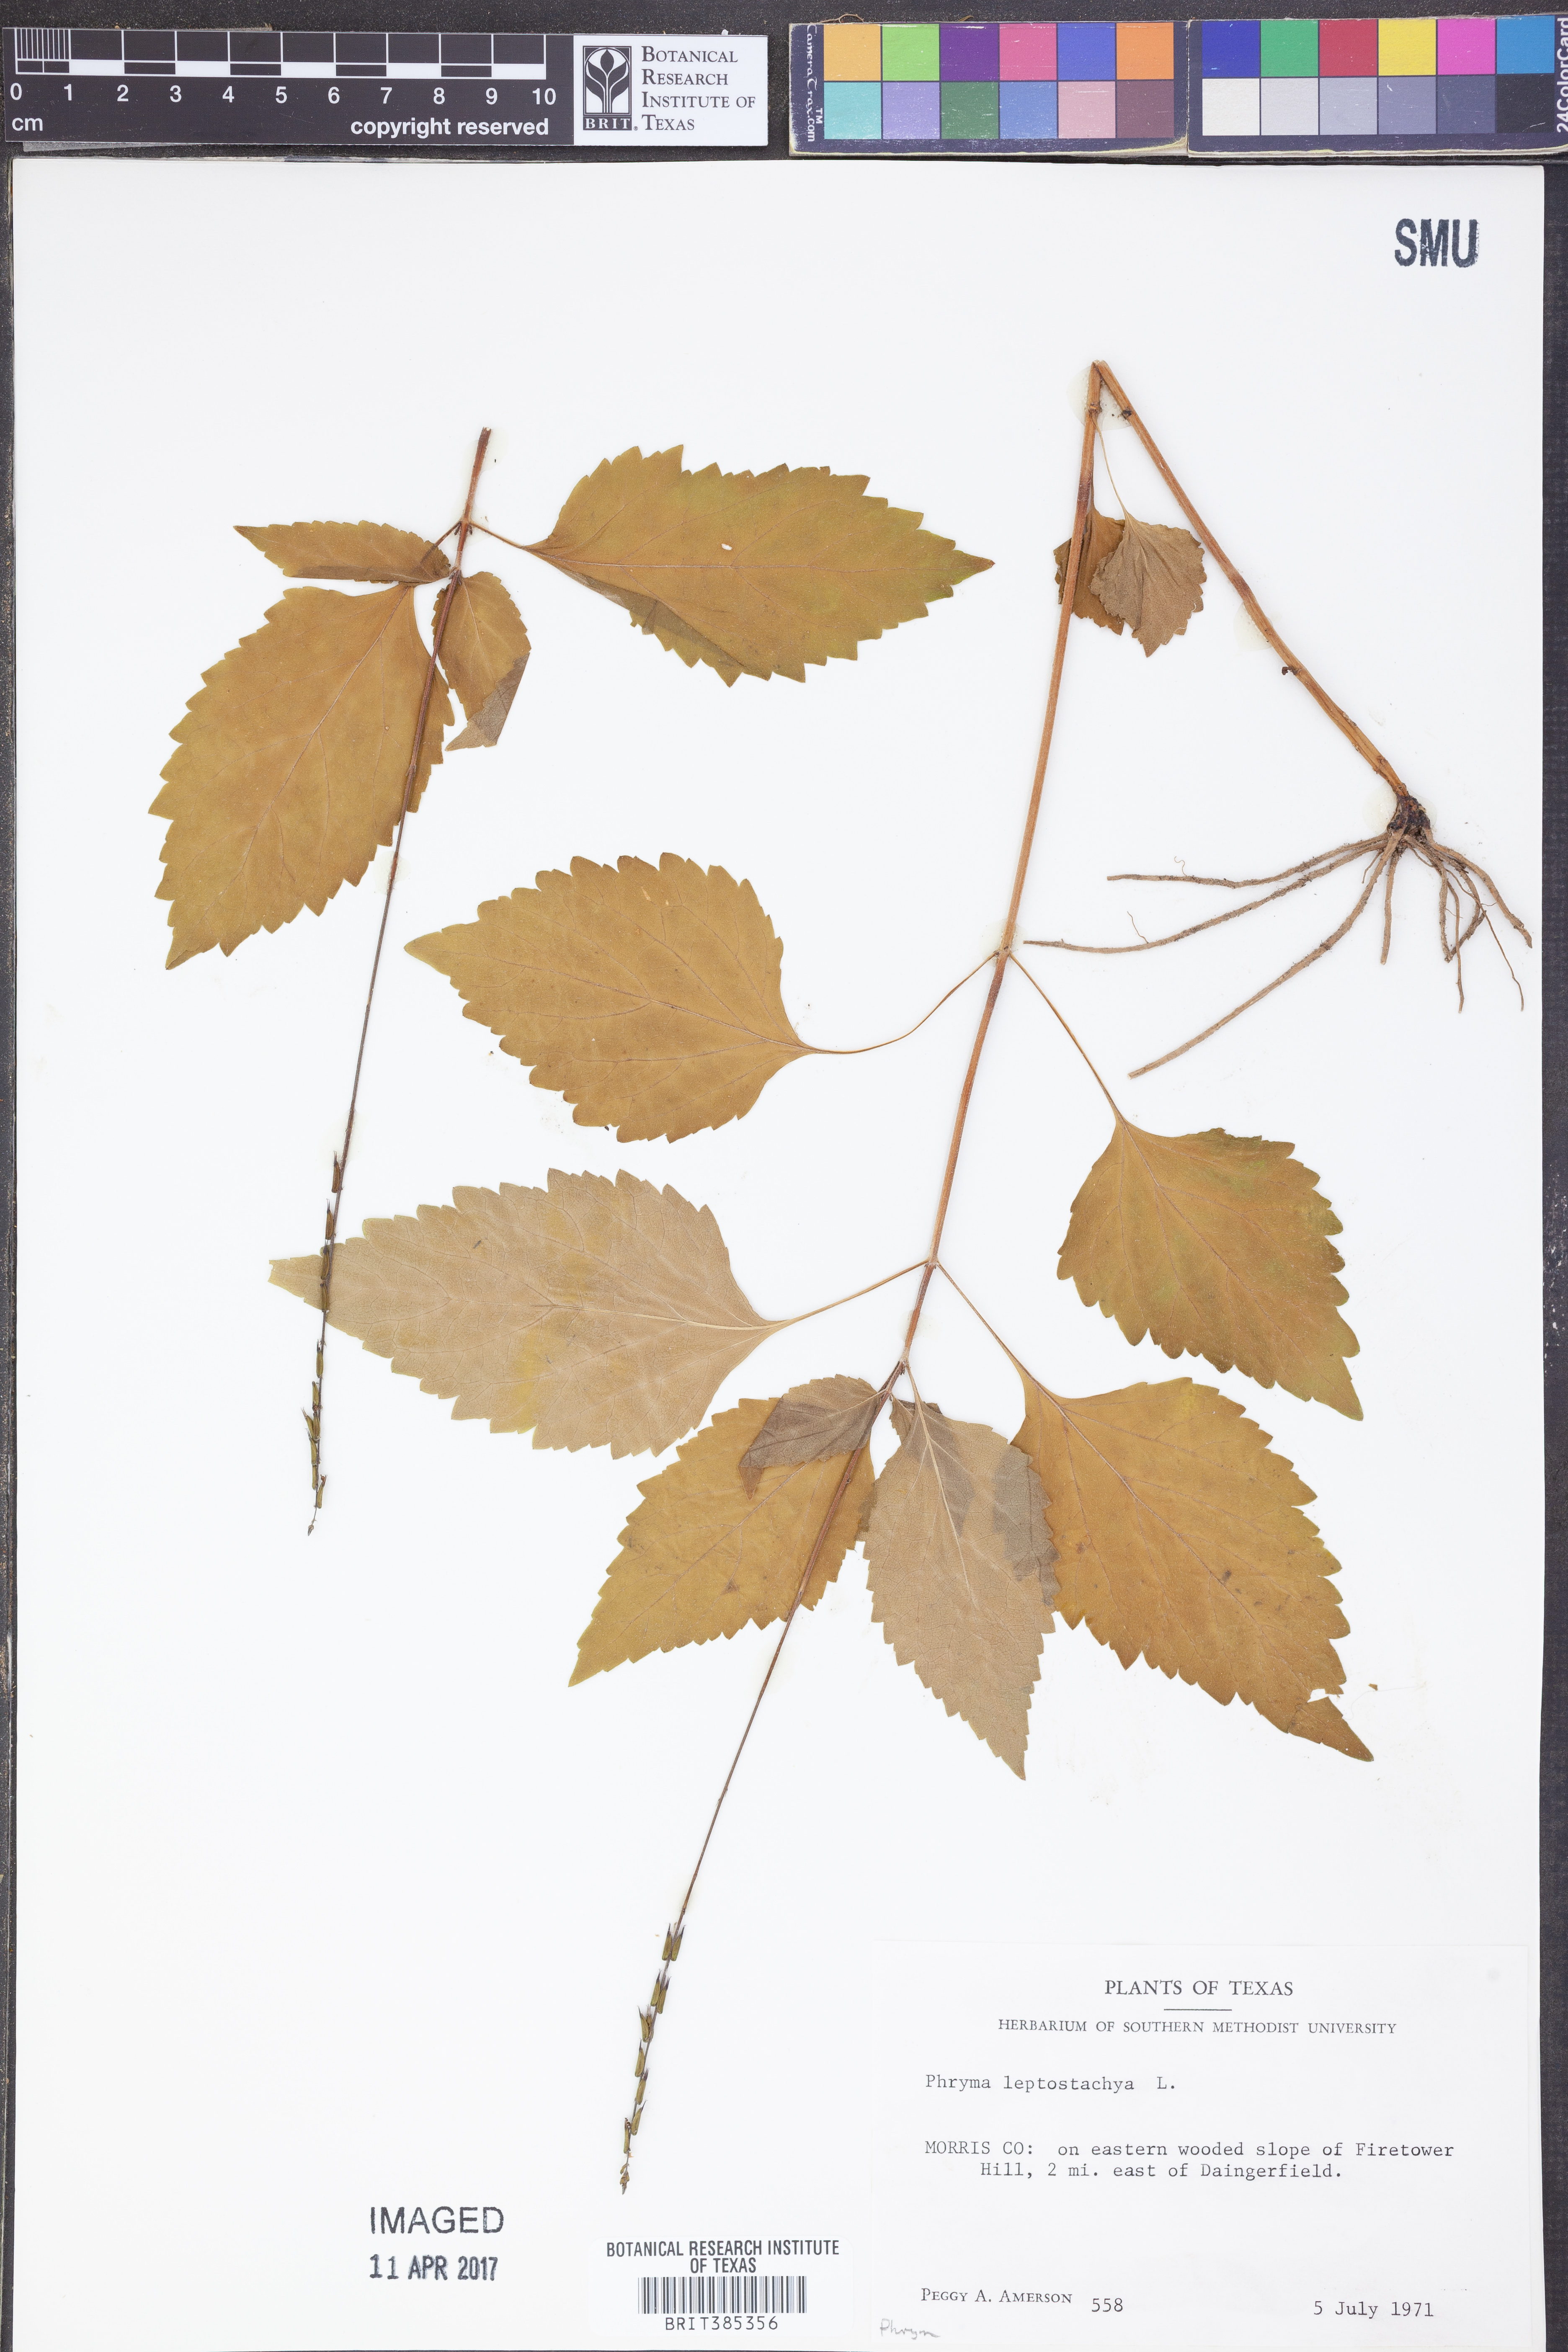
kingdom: Plantae
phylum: Tracheophyta
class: Magnoliopsida
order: Lamiales
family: Phrymaceae
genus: Phryma
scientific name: Phryma leptostachya
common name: American lopseed
